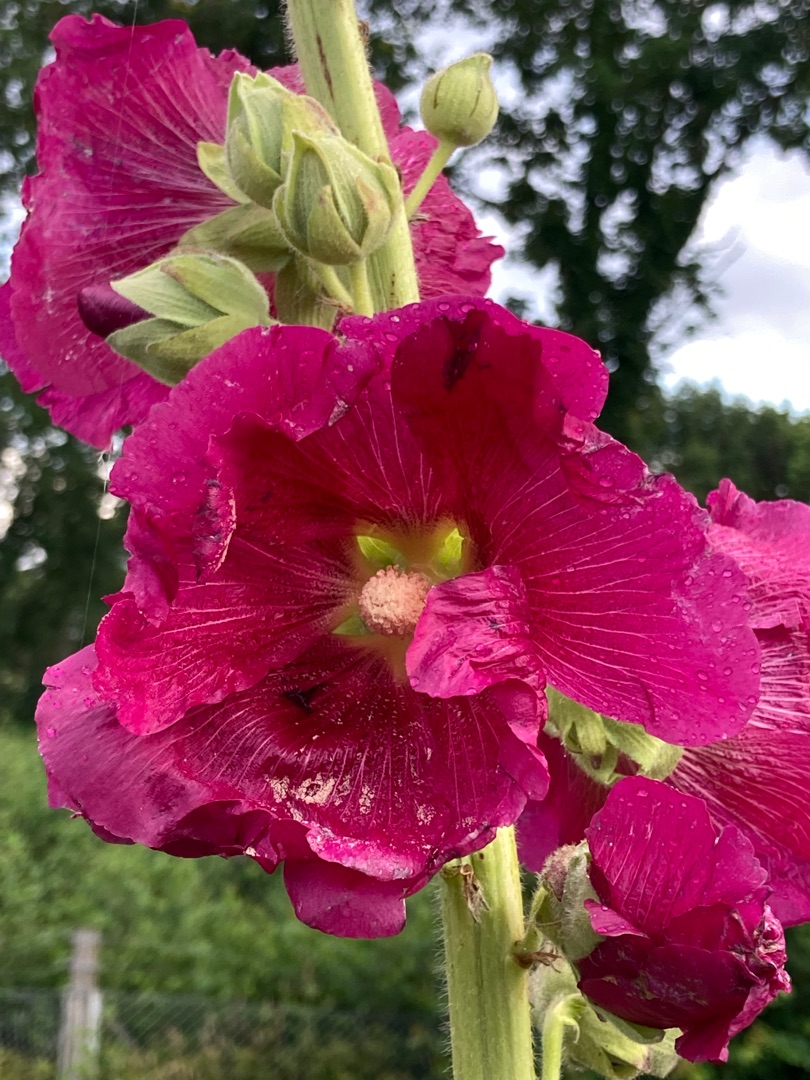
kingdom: Plantae
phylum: Tracheophyta
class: Magnoliopsida
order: Malvales
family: Malvaceae
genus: Alcea
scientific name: Alcea rosea
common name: Have-stokrose
